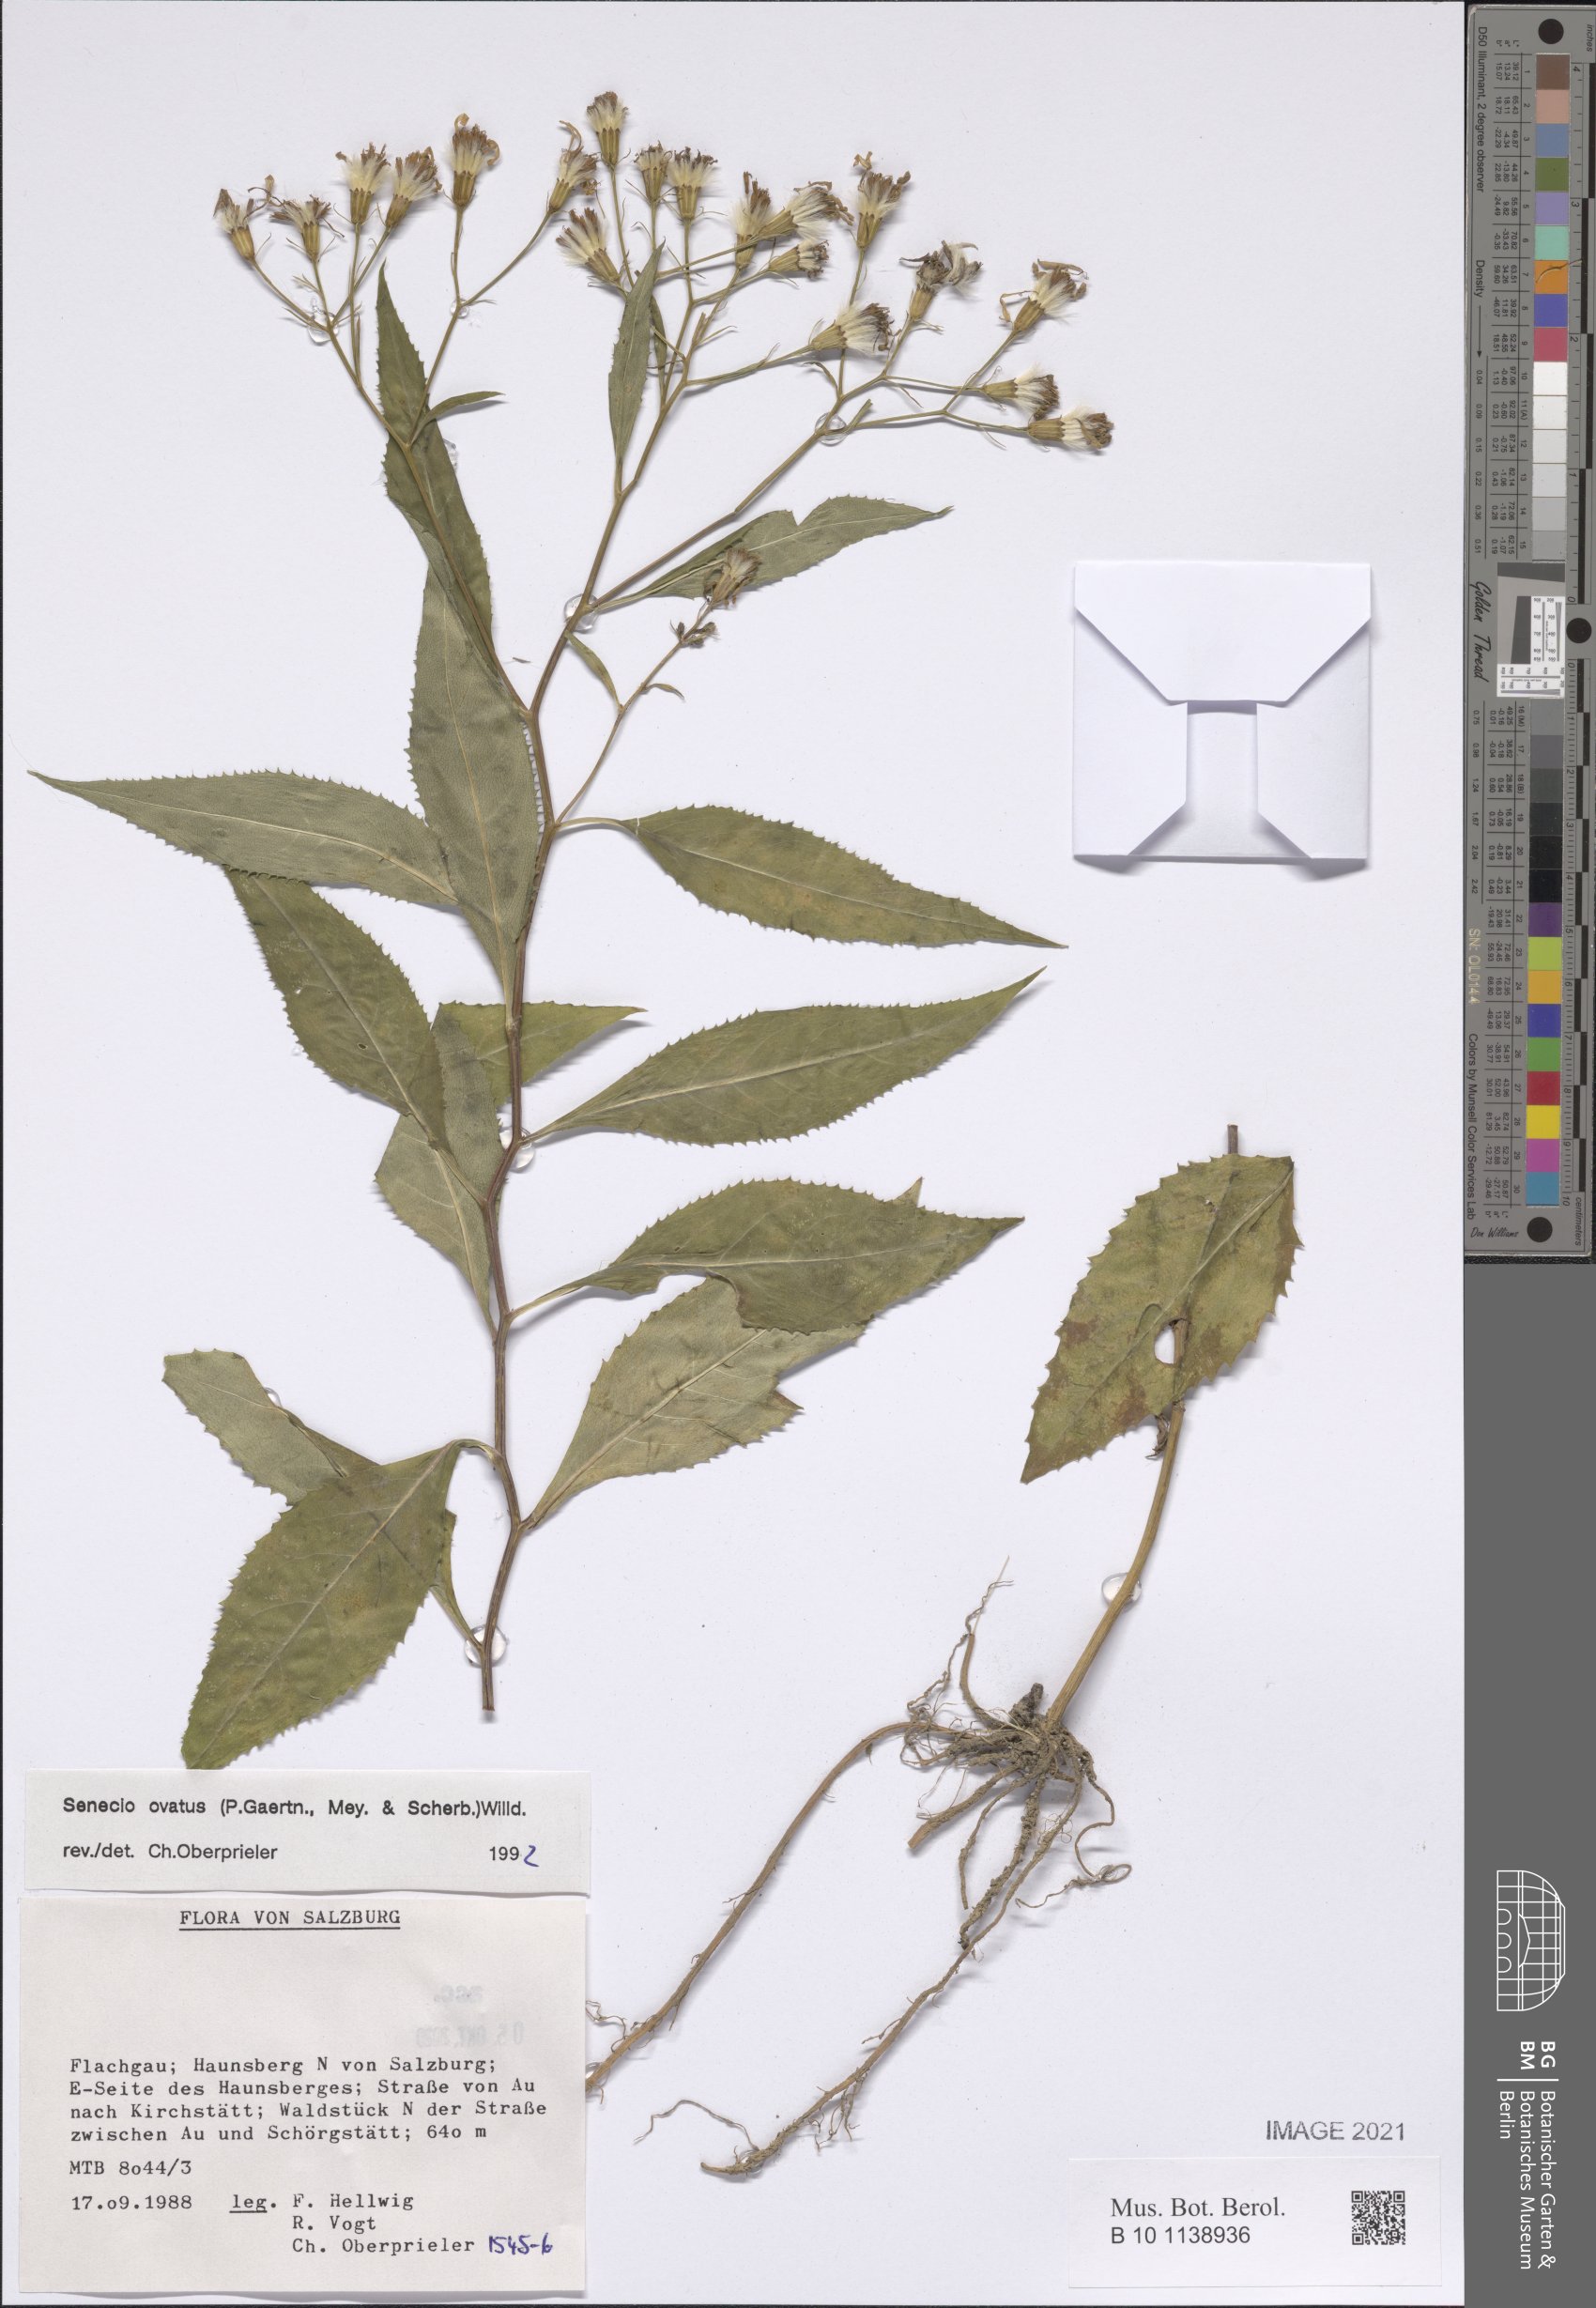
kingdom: Plantae
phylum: Tracheophyta
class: Magnoliopsida
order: Asterales
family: Asteraceae
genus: Senecio
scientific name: Senecio ovatus
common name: Wood ragwort
